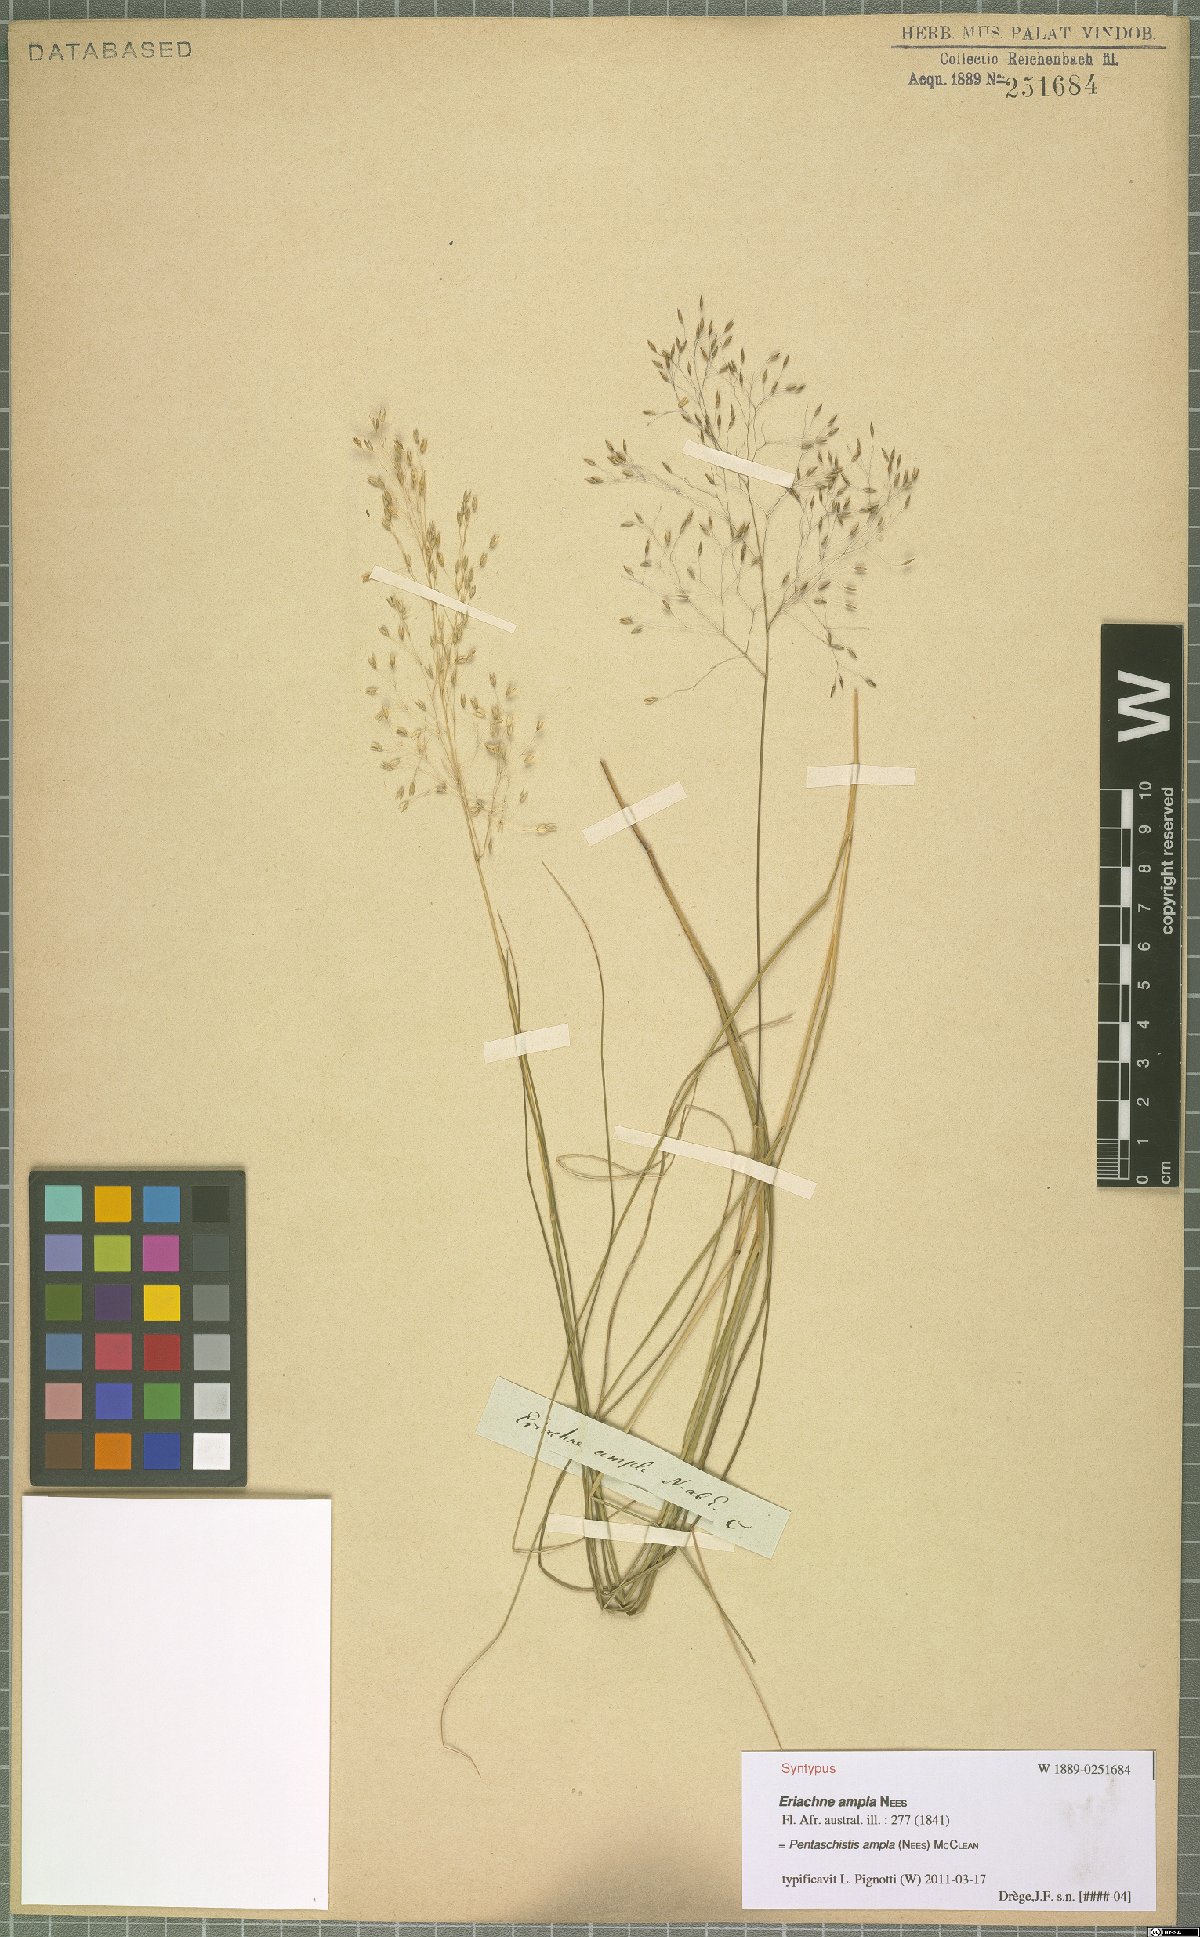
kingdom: Plantae
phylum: Tracheophyta
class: Liliopsida
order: Poales
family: Poaceae
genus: Pentameris
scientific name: Pentameris ampla
